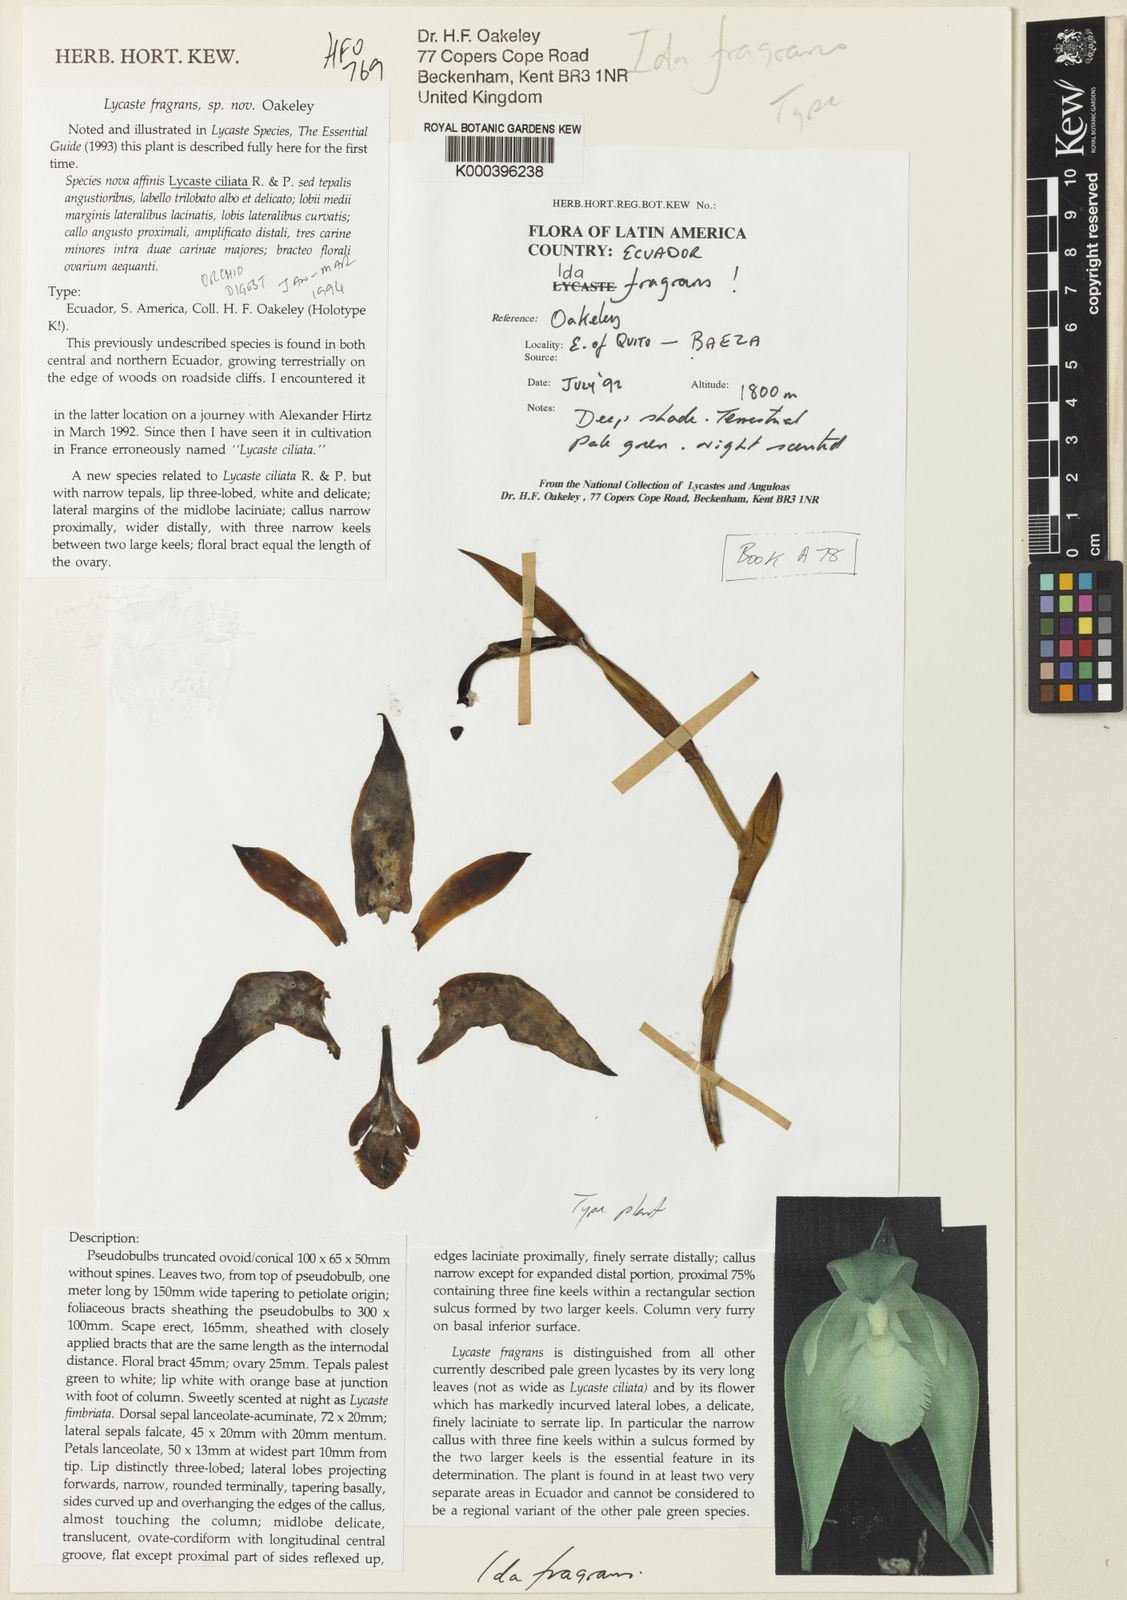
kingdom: Plantae
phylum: Tracheophyta
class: Liliopsida
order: Asparagales
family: Orchidaceae
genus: Ida
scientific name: Ida ciliata
